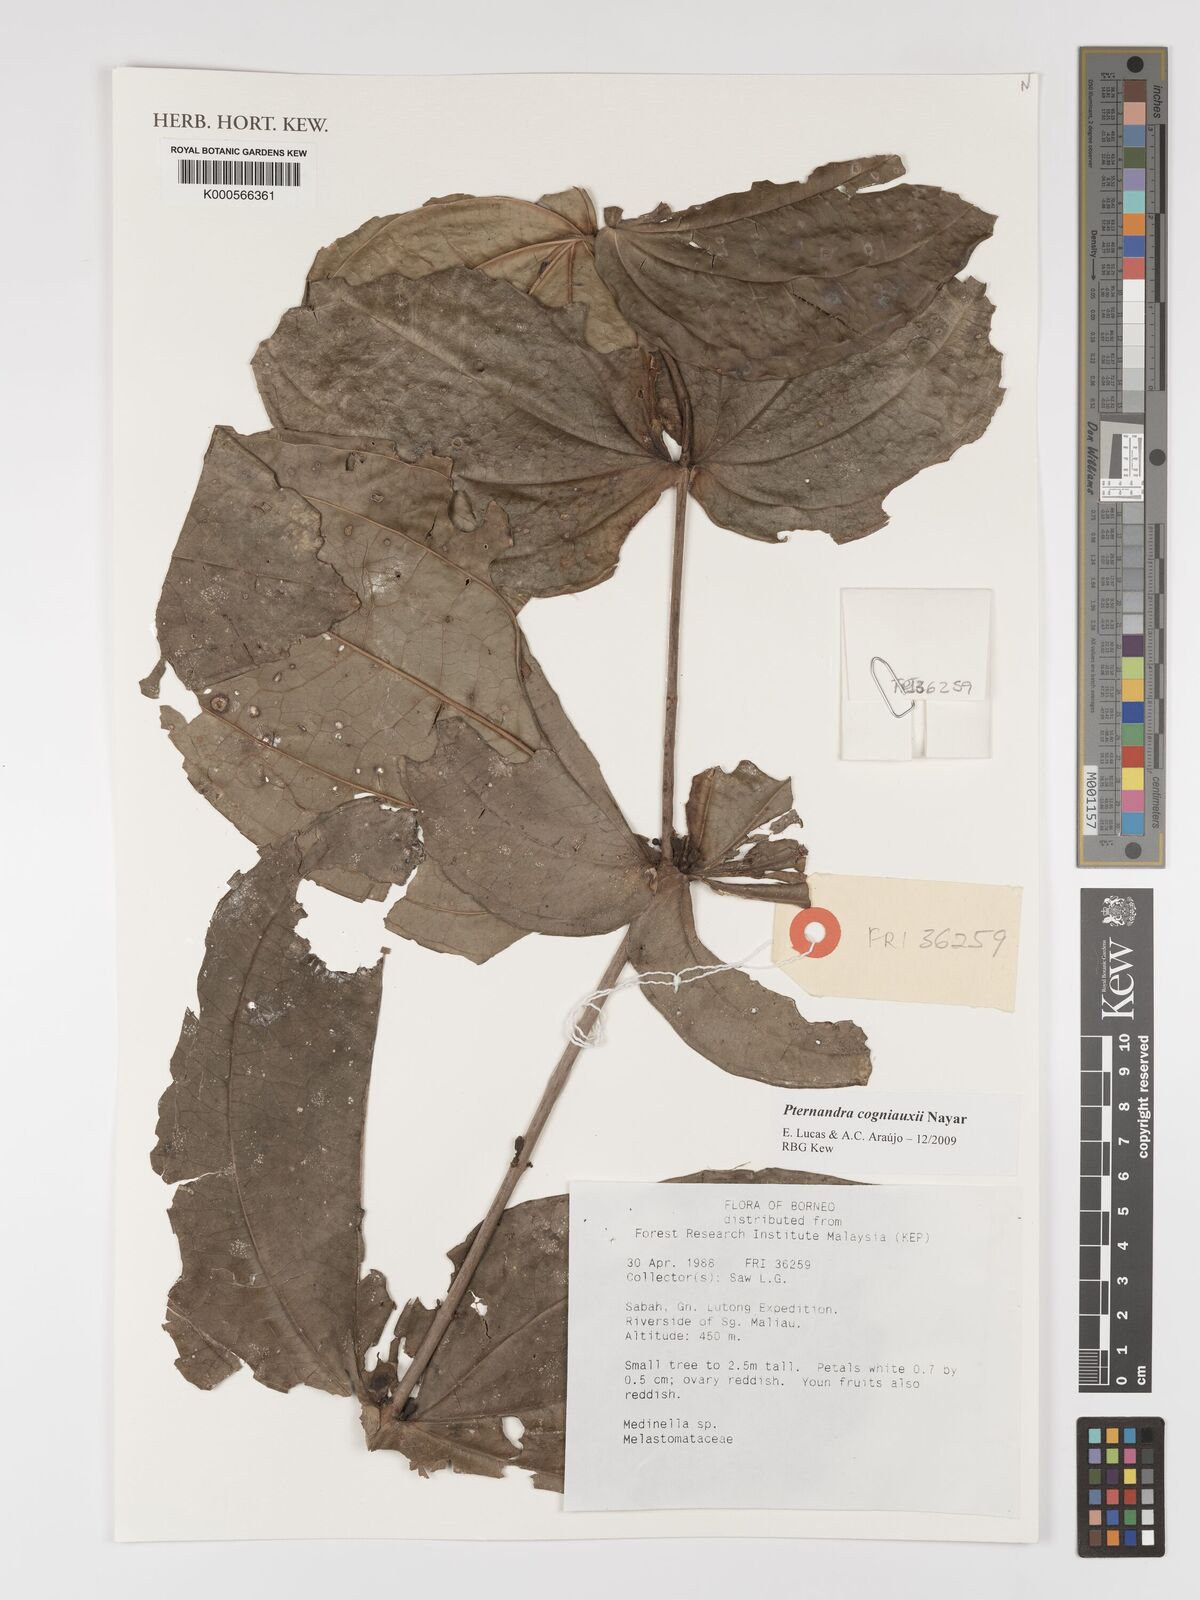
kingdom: Plantae
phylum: Tracheophyta
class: Magnoliopsida
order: Myrtales
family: Melastomataceae
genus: Pternandra
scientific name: Pternandra cogniauxii
